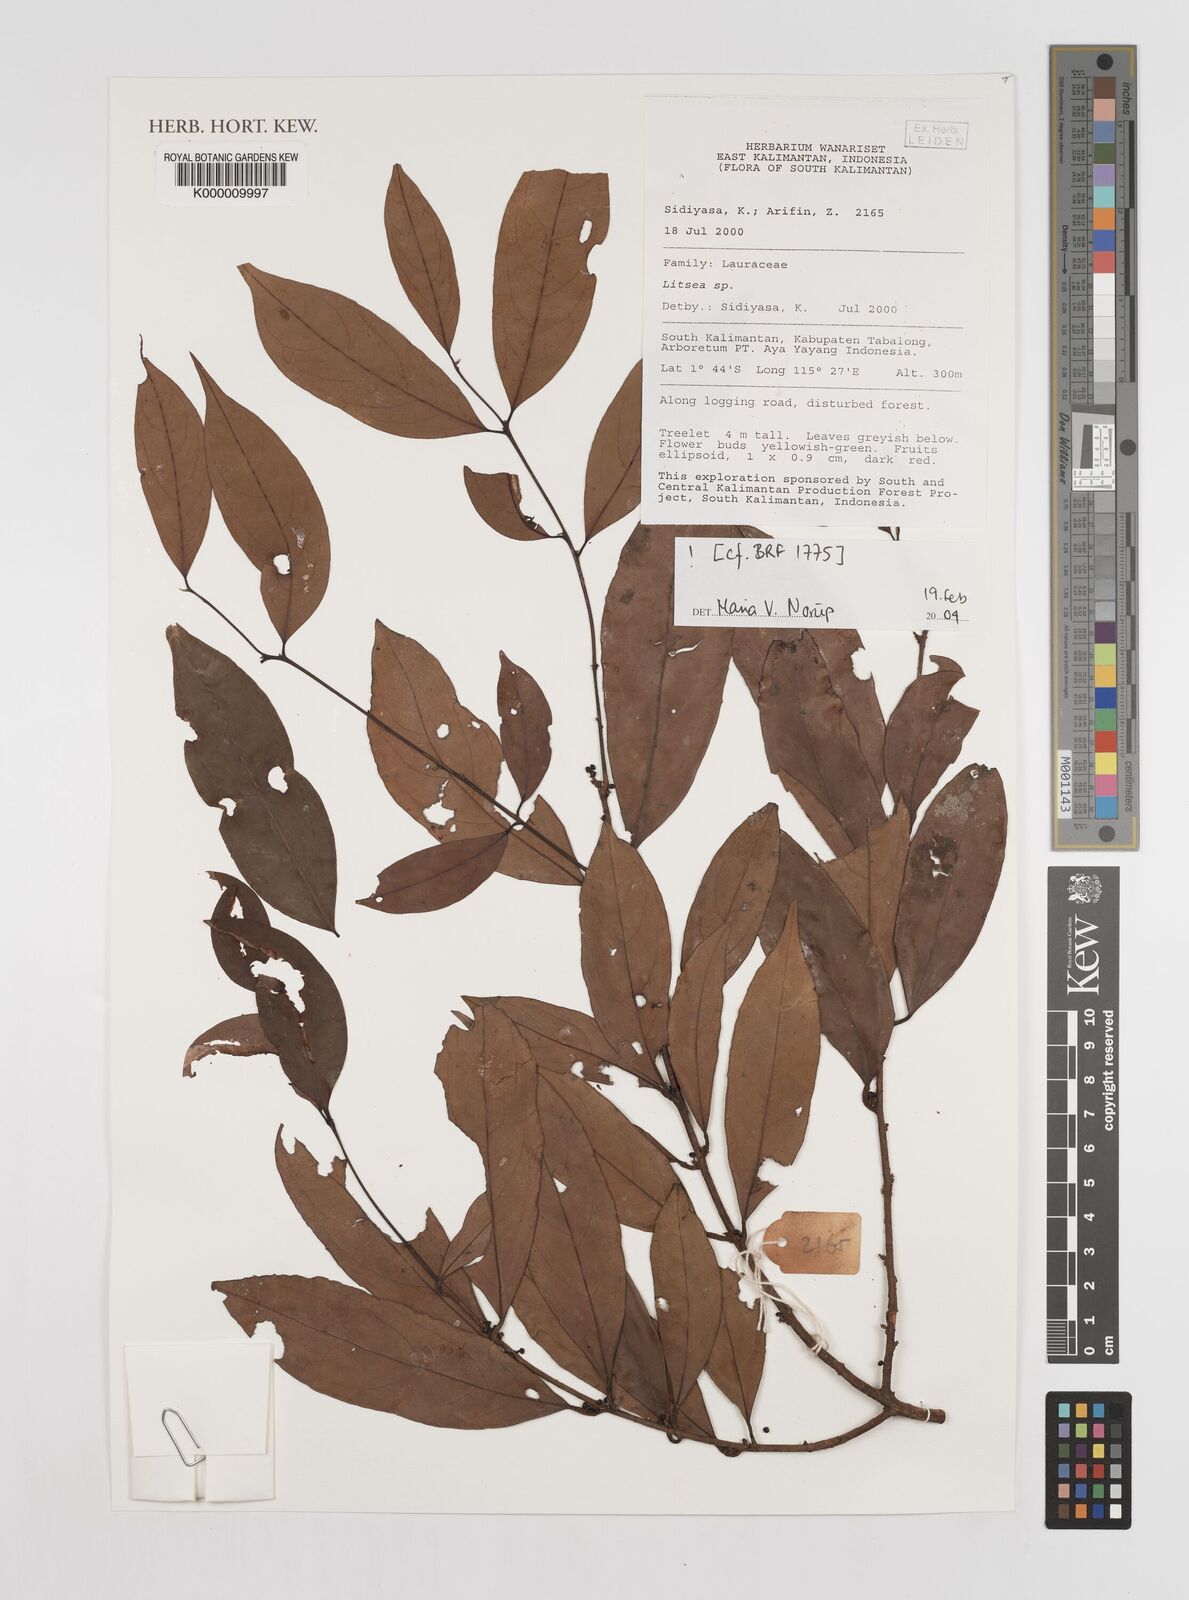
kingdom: Plantae
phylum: Tracheophyta
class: Magnoliopsida
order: Laurales
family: Lauraceae
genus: Litsea
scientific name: Litsea
